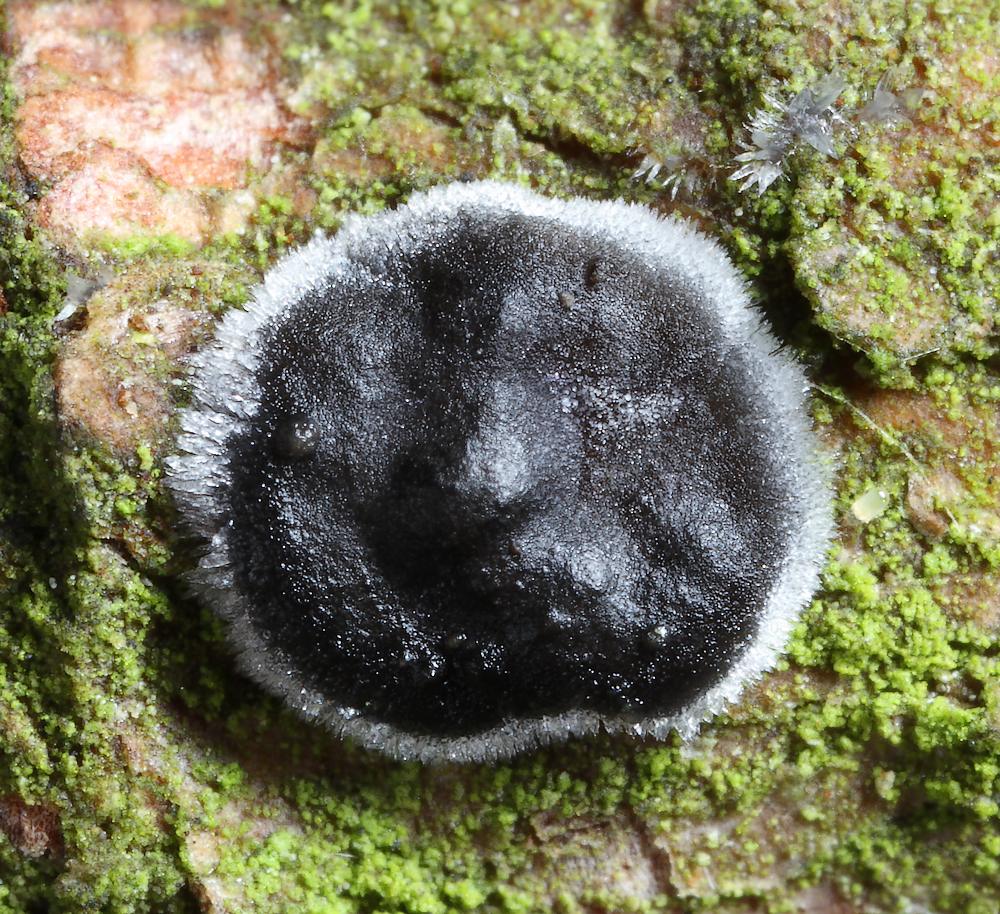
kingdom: Fungi
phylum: Basidiomycota
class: Agaricomycetes
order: Auriculariales
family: Auriculariaceae
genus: Exidia
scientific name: Exidia pithya
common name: gran-bævretop
